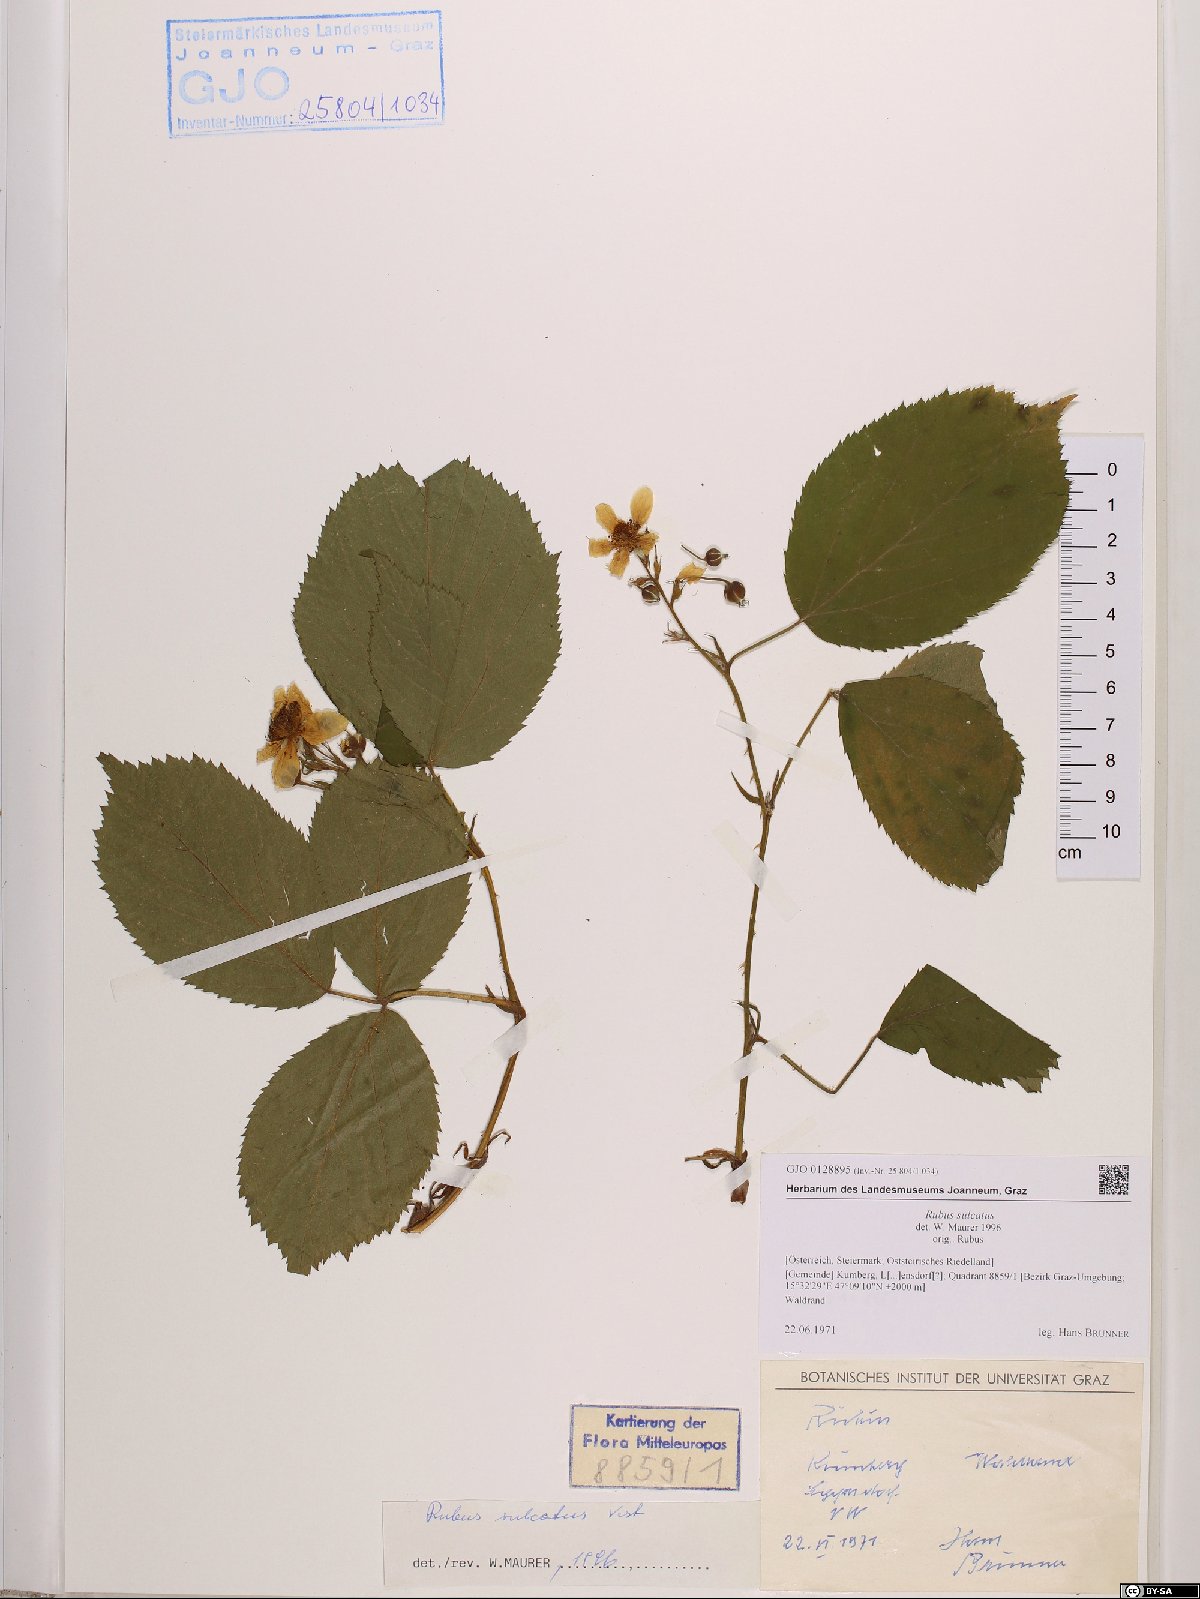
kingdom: Plantae
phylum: Tracheophyta
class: Magnoliopsida
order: Rosales
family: Rosaceae
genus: Rubus
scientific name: Rubus sulcatus
